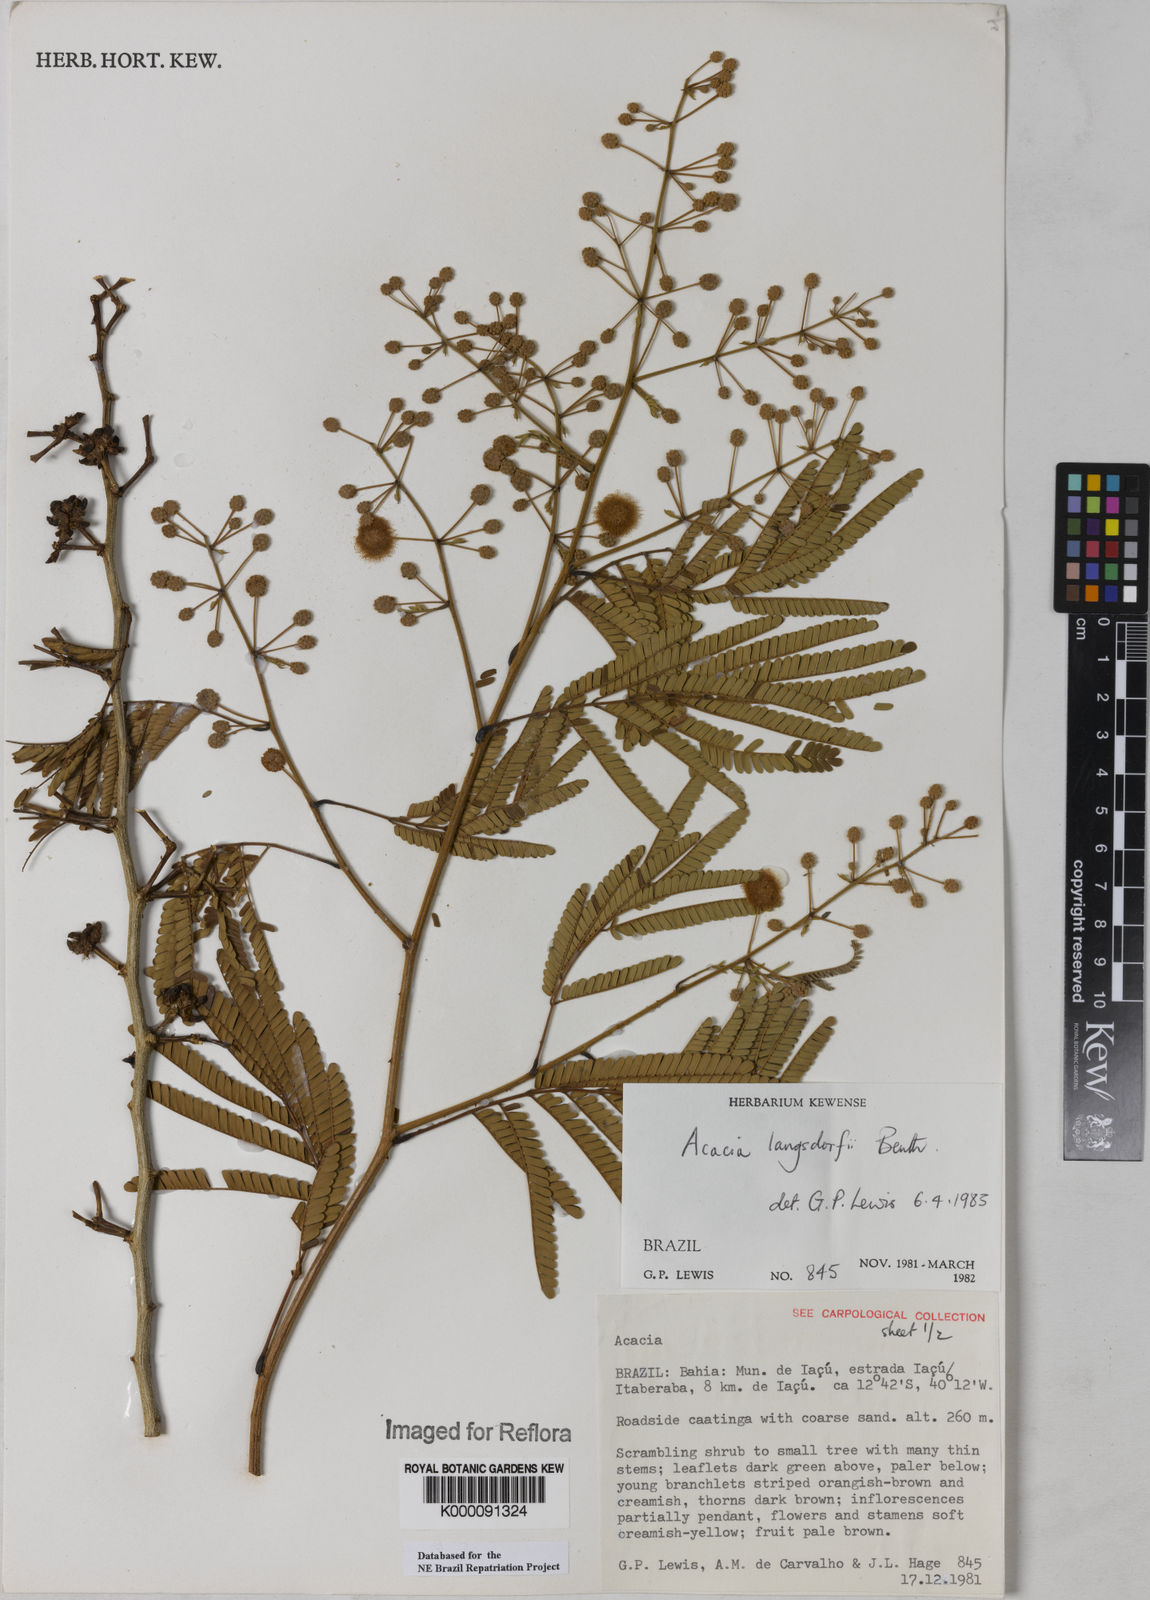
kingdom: Plantae
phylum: Tracheophyta
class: Magnoliopsida
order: Fabales
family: Fabaceae
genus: Senegalia
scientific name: Senegalia langsdorffii
